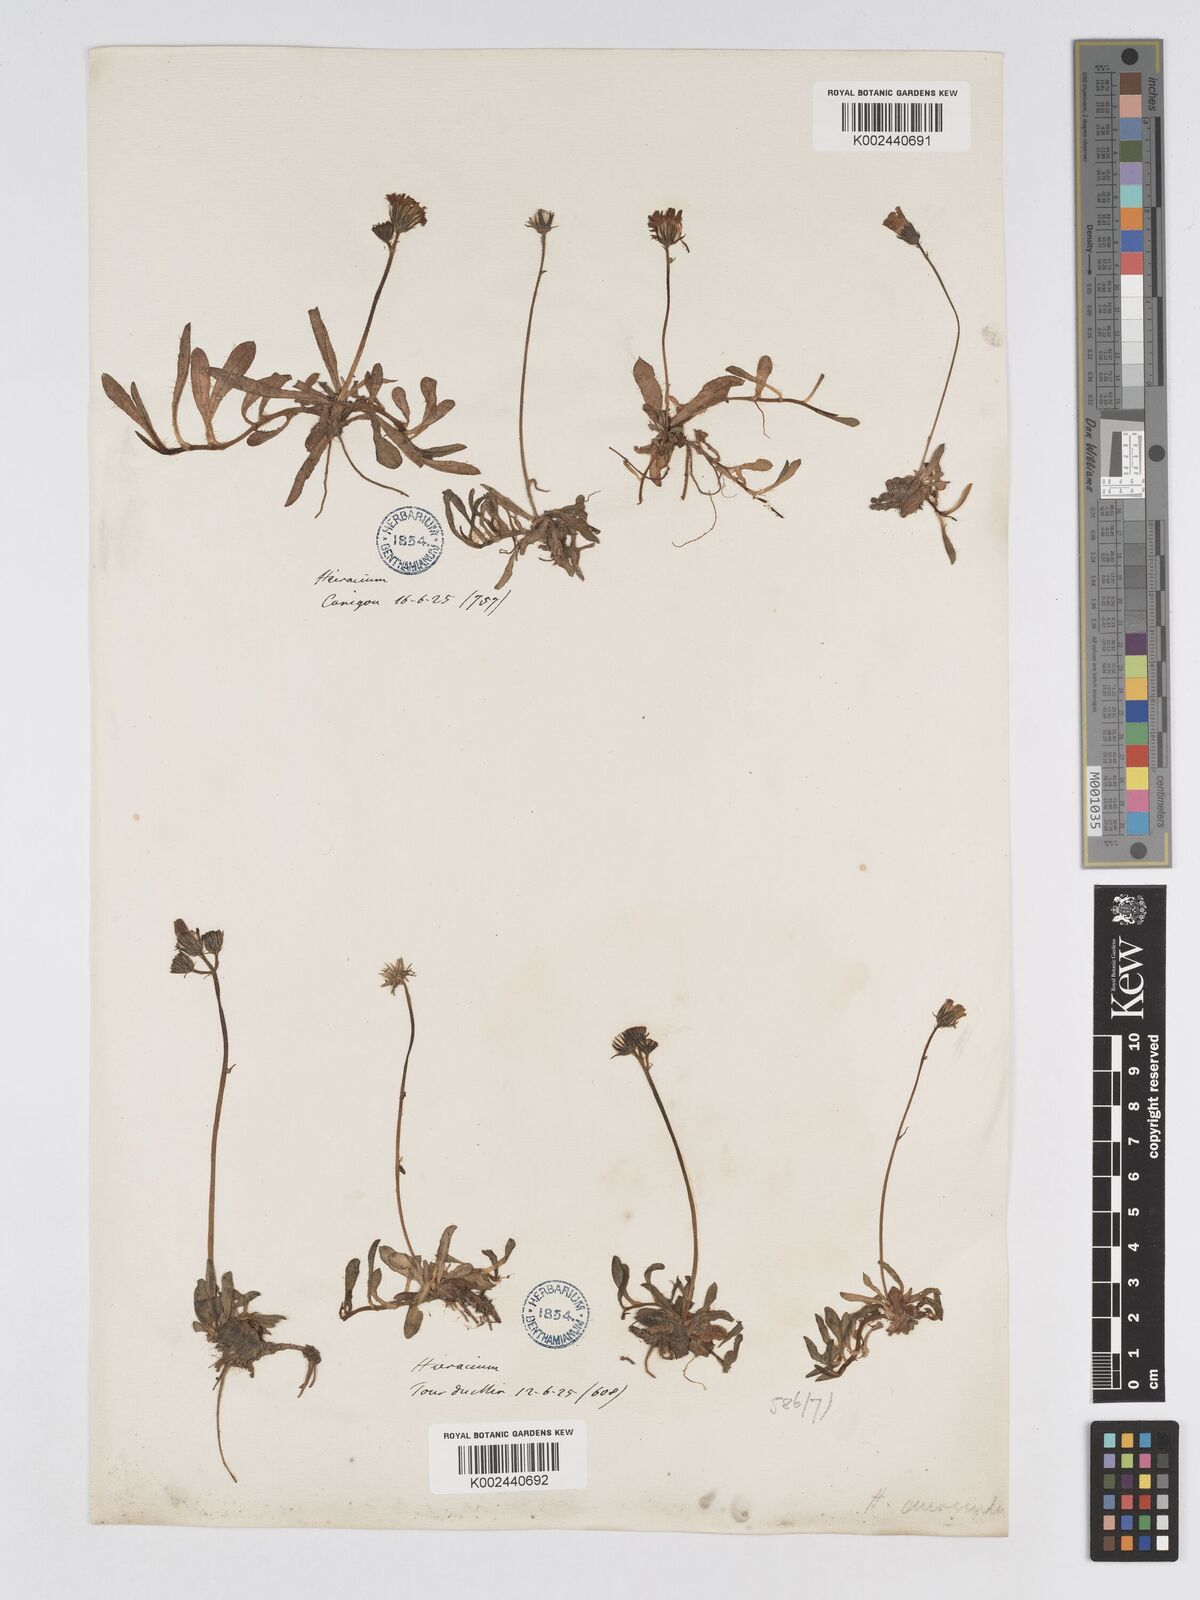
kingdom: Plantae
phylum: Tracheophyta
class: Magnoliopsida
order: Asterales
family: Asteraceae
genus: Pilosella
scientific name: Pilosella floribunda
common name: Glaucous hawkweed
